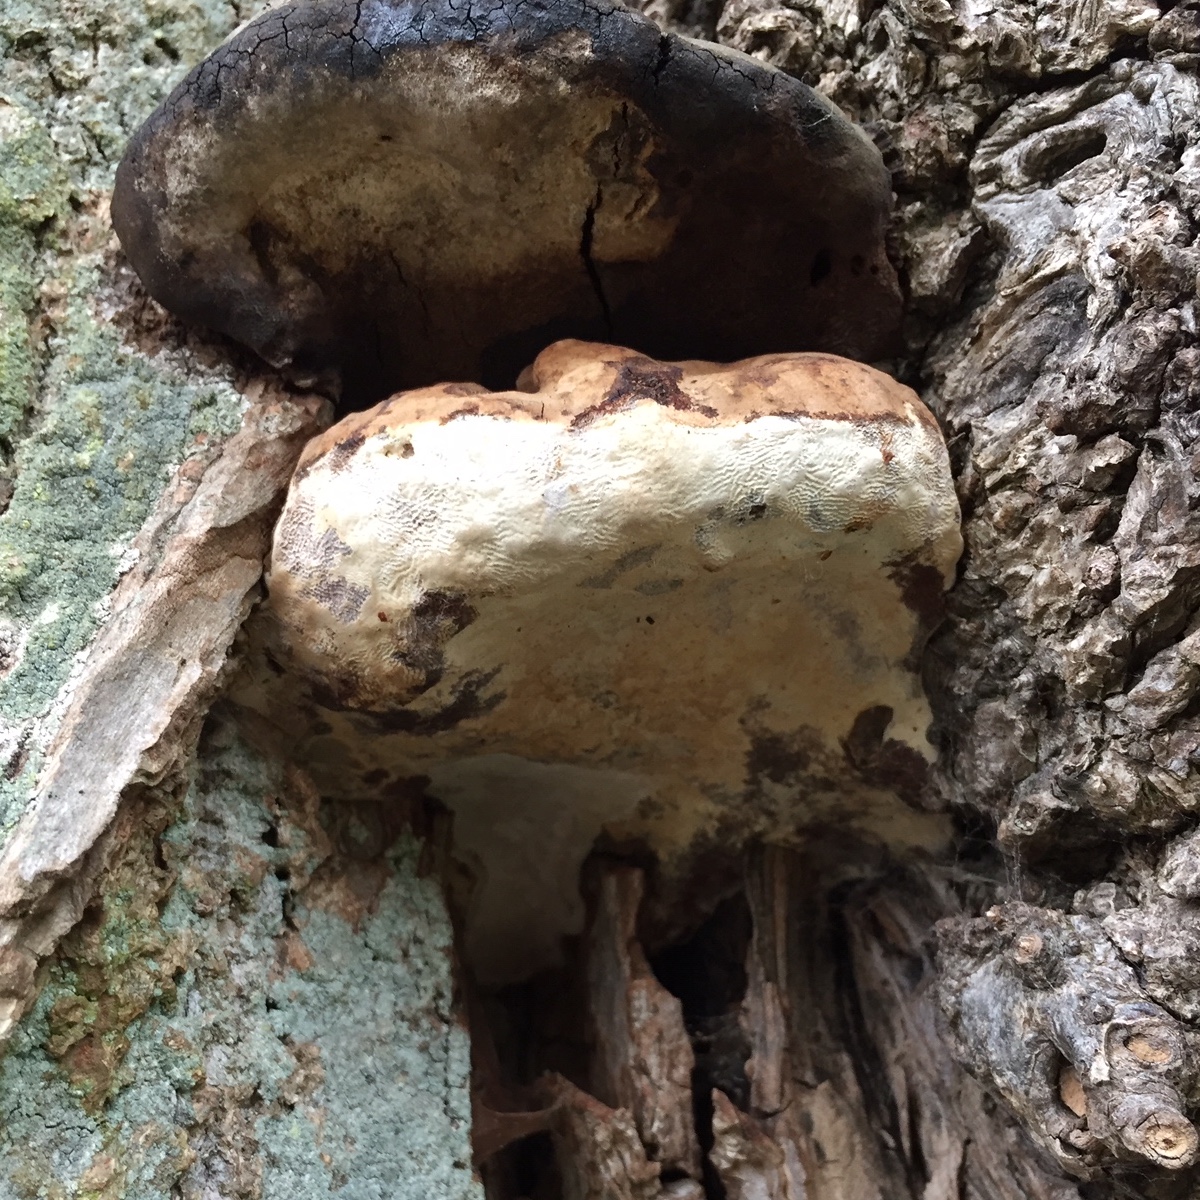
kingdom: Fungi
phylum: Basidiomycota
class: Agaricomycetes
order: Polyporales
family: Polyporaceae
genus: Ganoderma
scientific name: Ganoderma adspersum
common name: grov lakporesvamp
